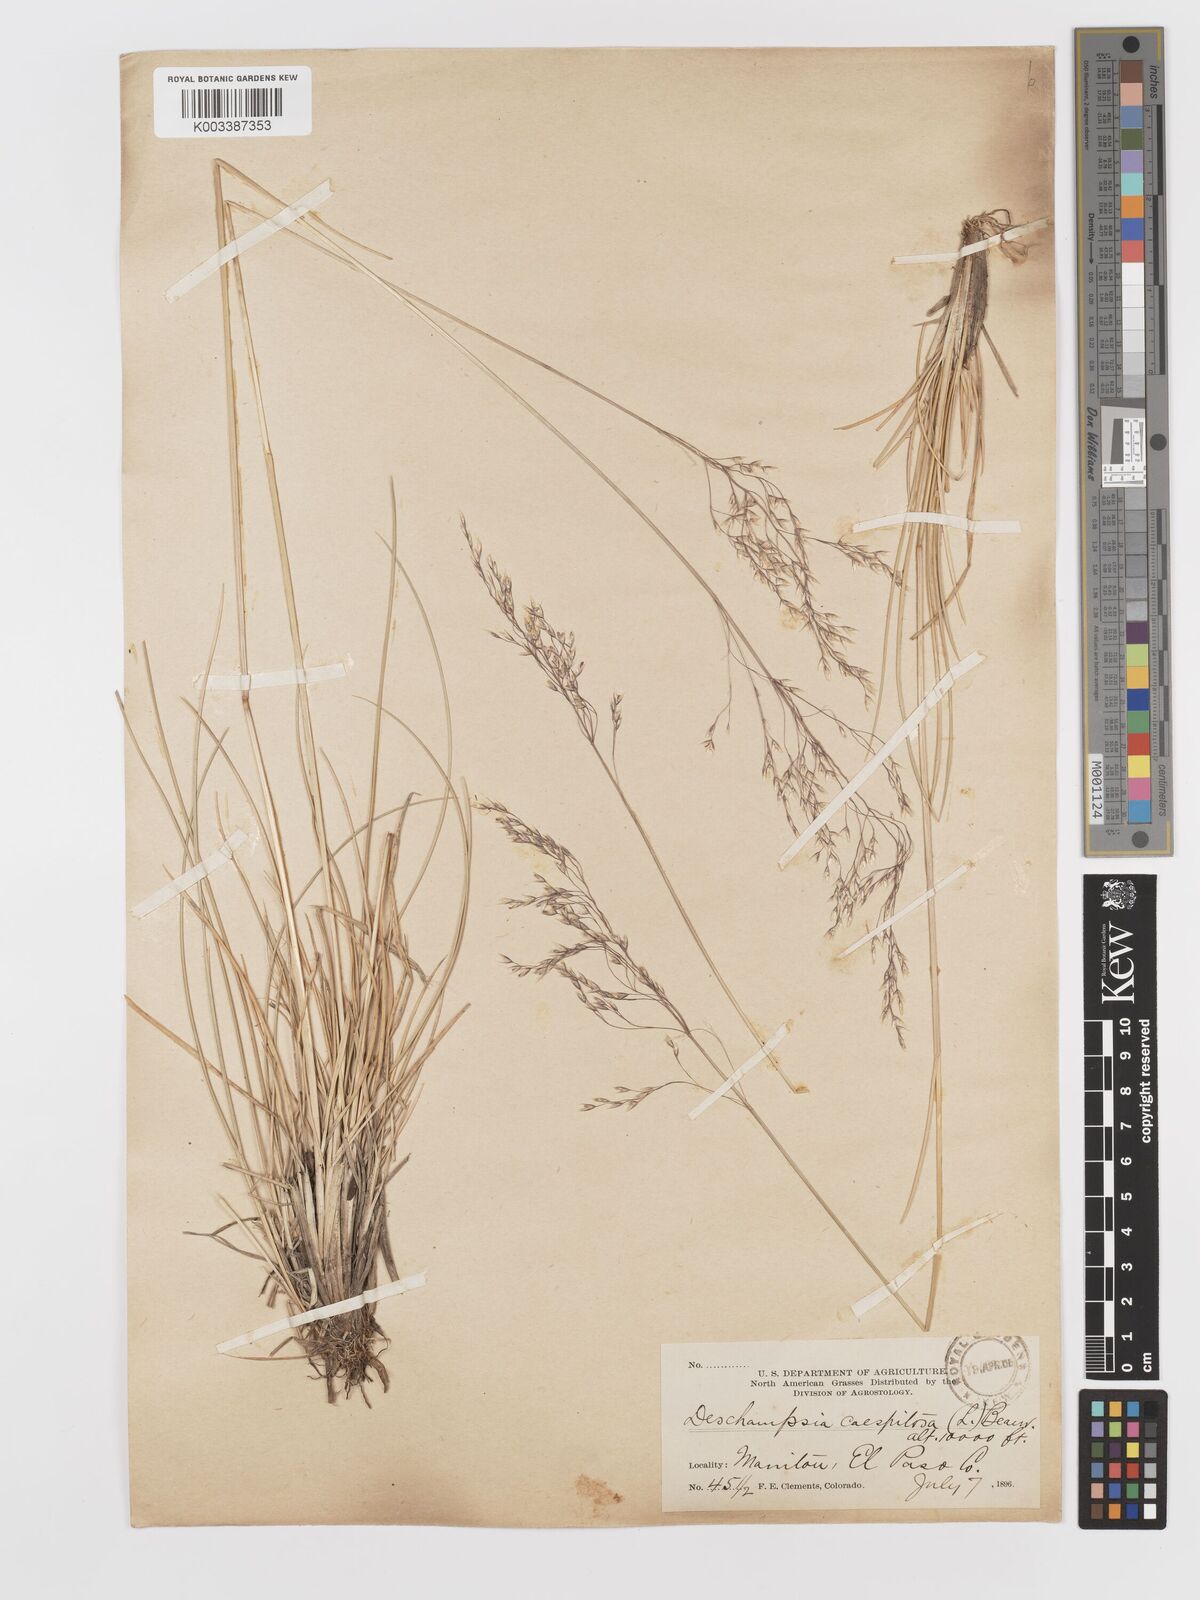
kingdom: Plantae
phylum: Tracheophyta
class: Liliopsida
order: Poales
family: Poaceae
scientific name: Poaceae
